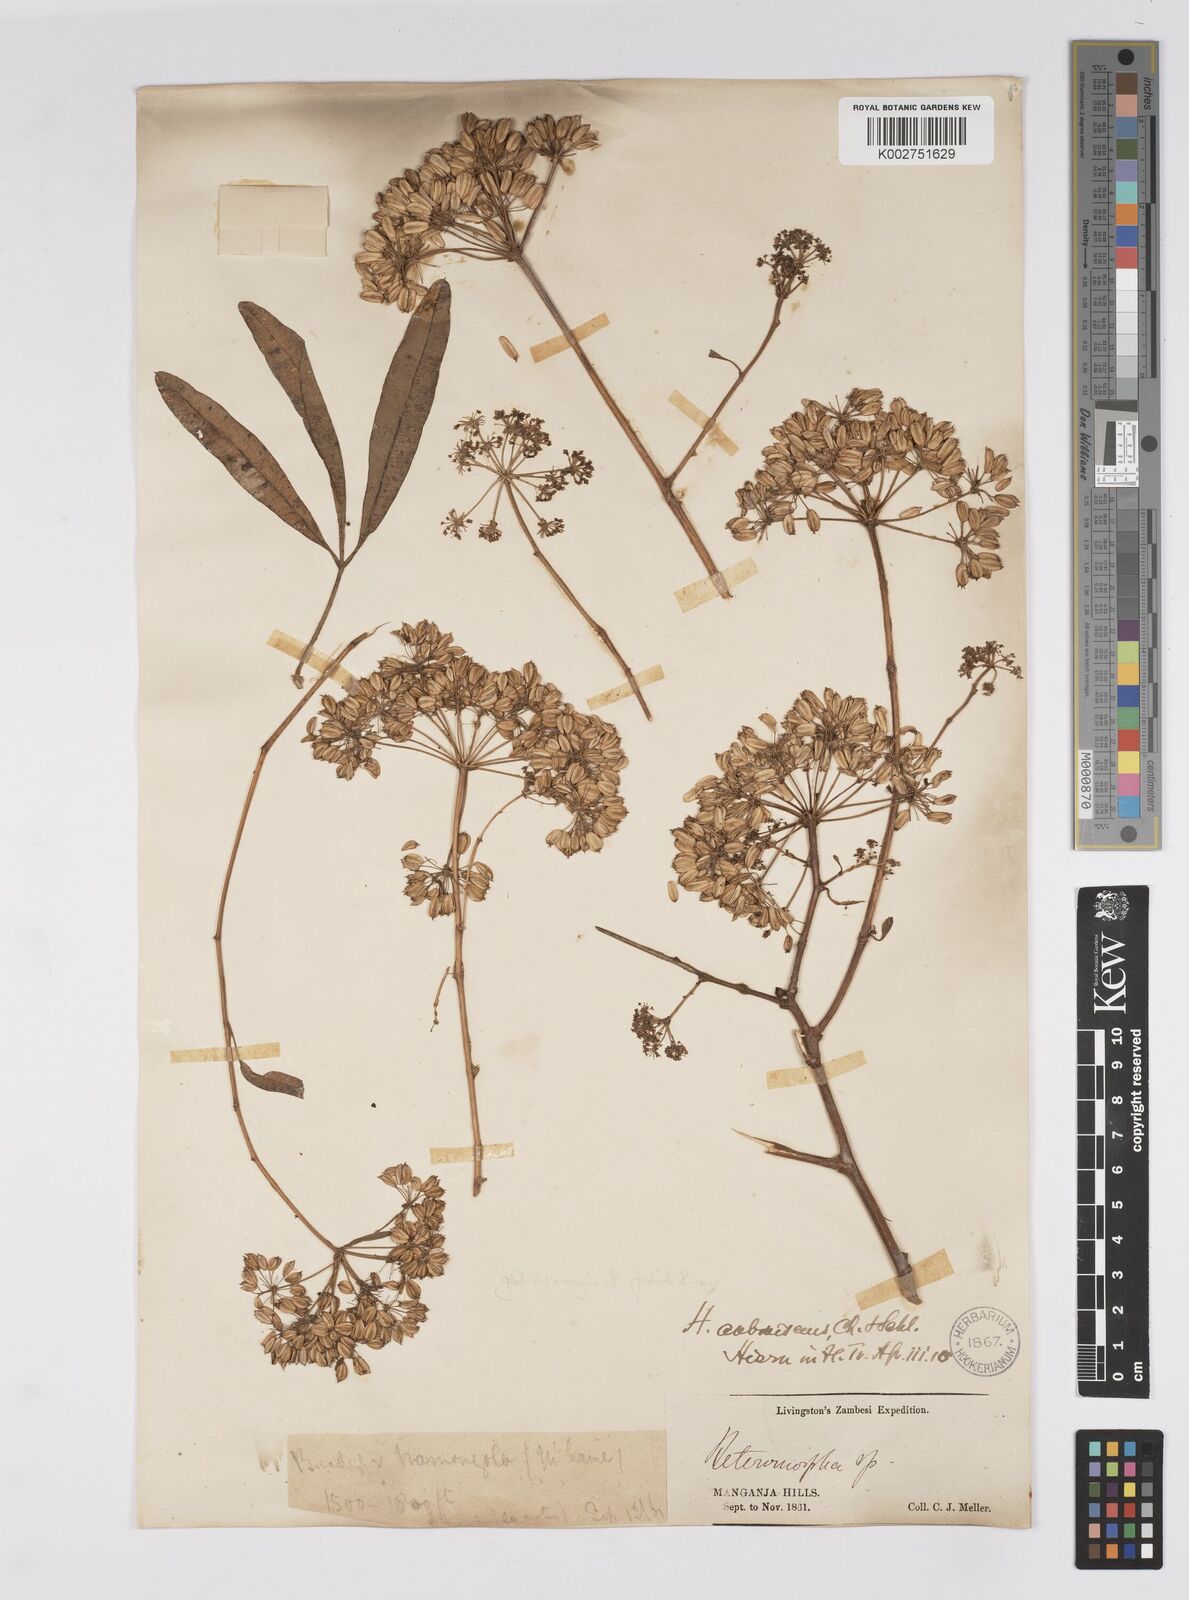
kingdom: Plantae
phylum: Tracheophyta
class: Magnoliopsida
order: Apiales
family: Apiaceae
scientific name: Apiaceae
